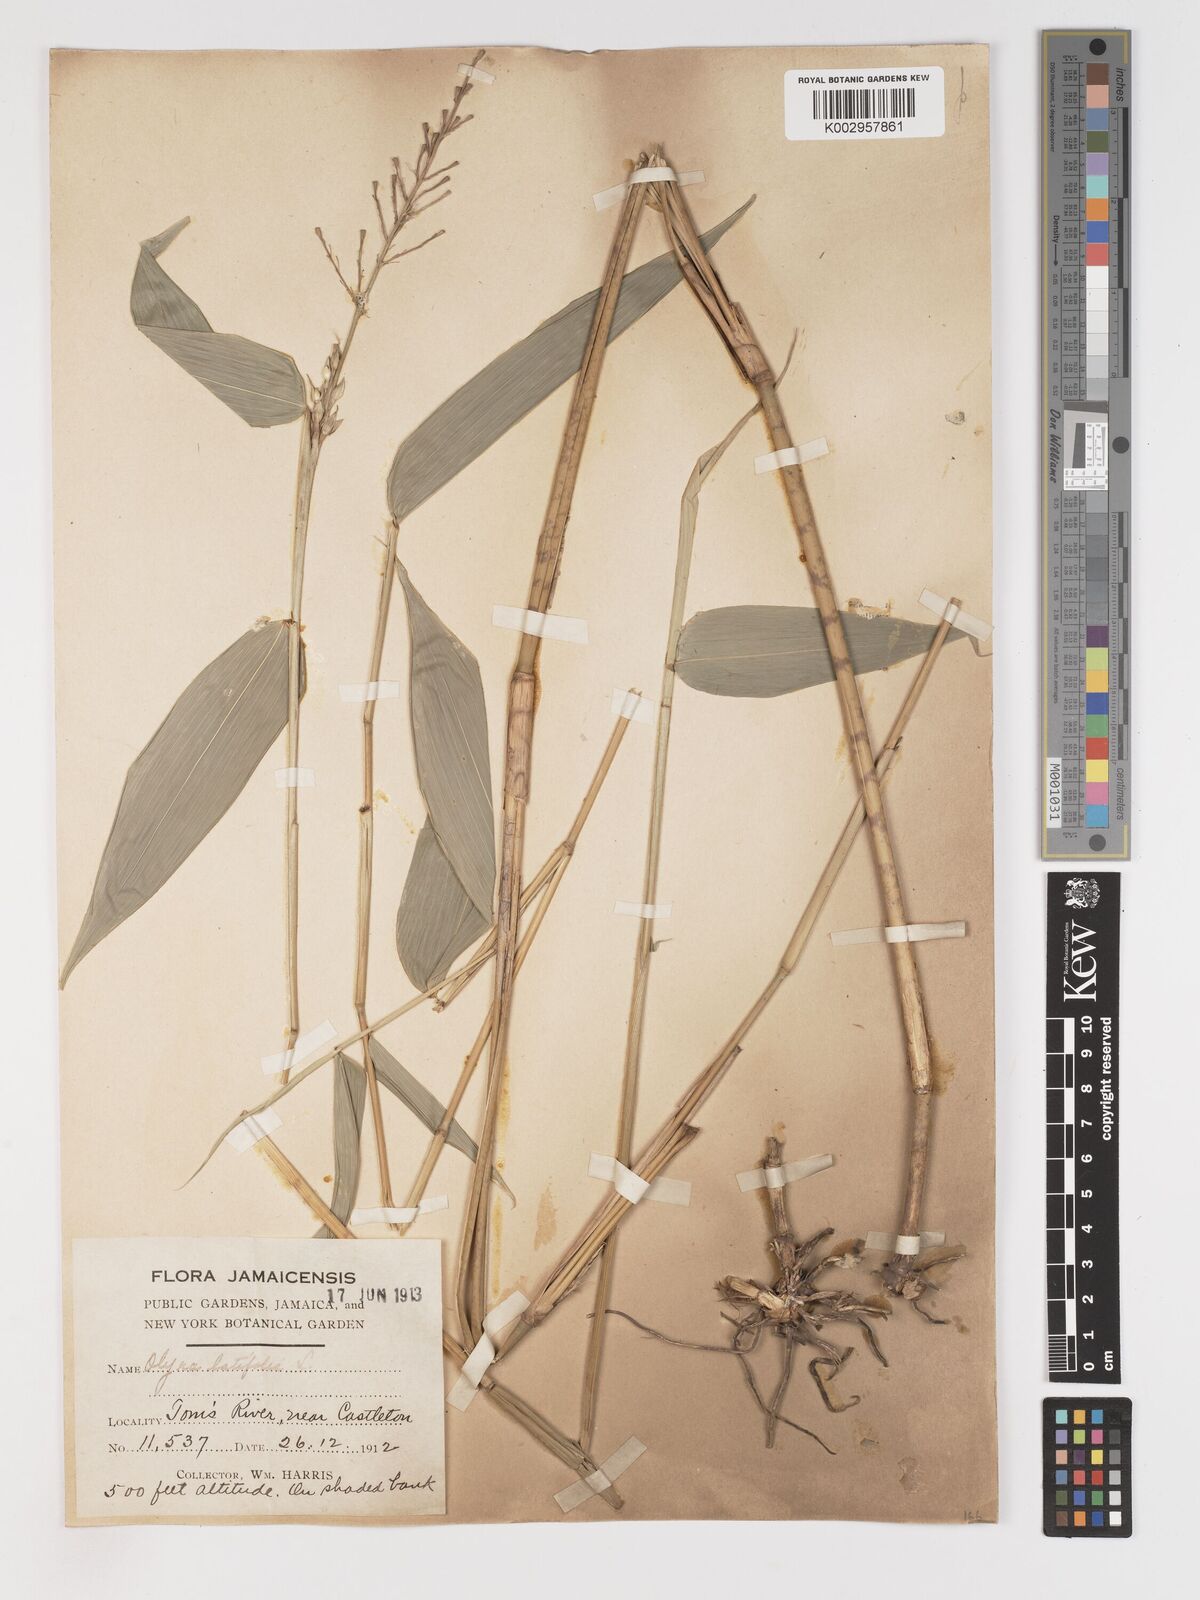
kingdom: Plantae
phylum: Tracheophyta
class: Liliopsida
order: Poales
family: Poaceae
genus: Olyra
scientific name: Olyra latifolia
